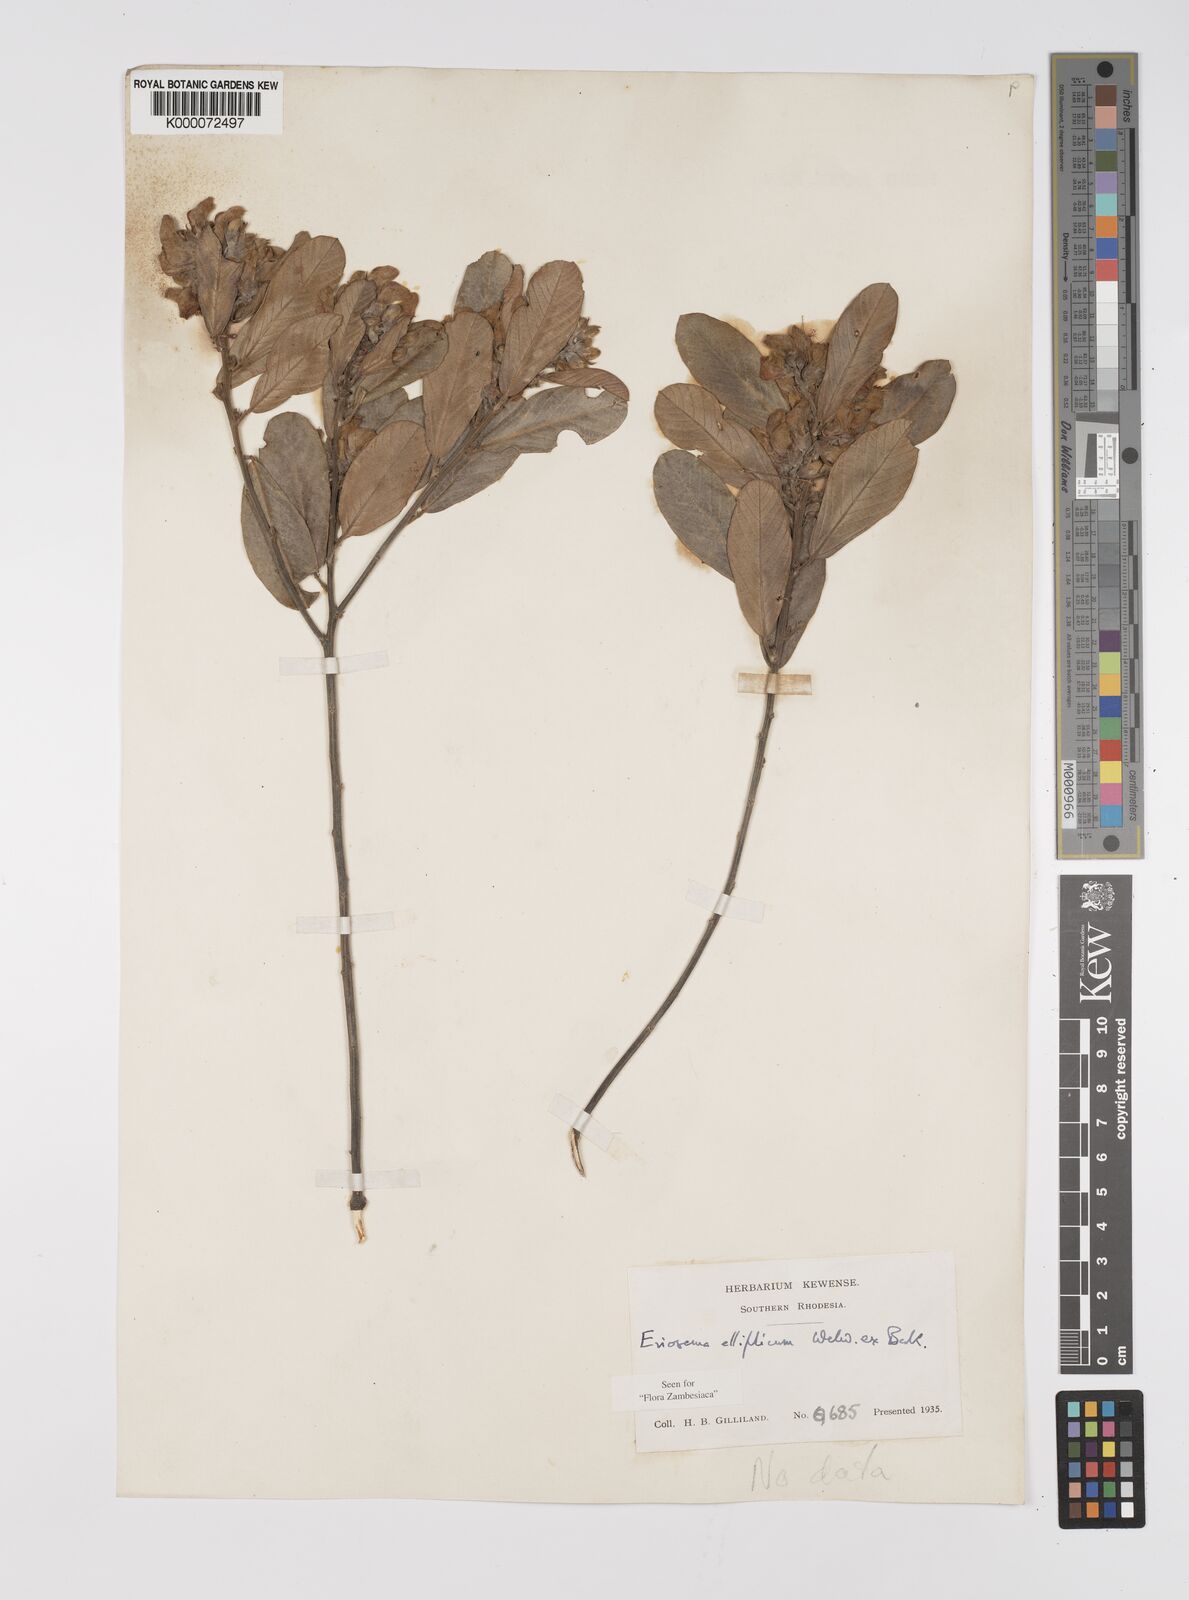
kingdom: Plantae
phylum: Tracheophyta
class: Magnoliopsida
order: Fabales
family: Fabaceae
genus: Eriosema
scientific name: Eriosema ellipticum
